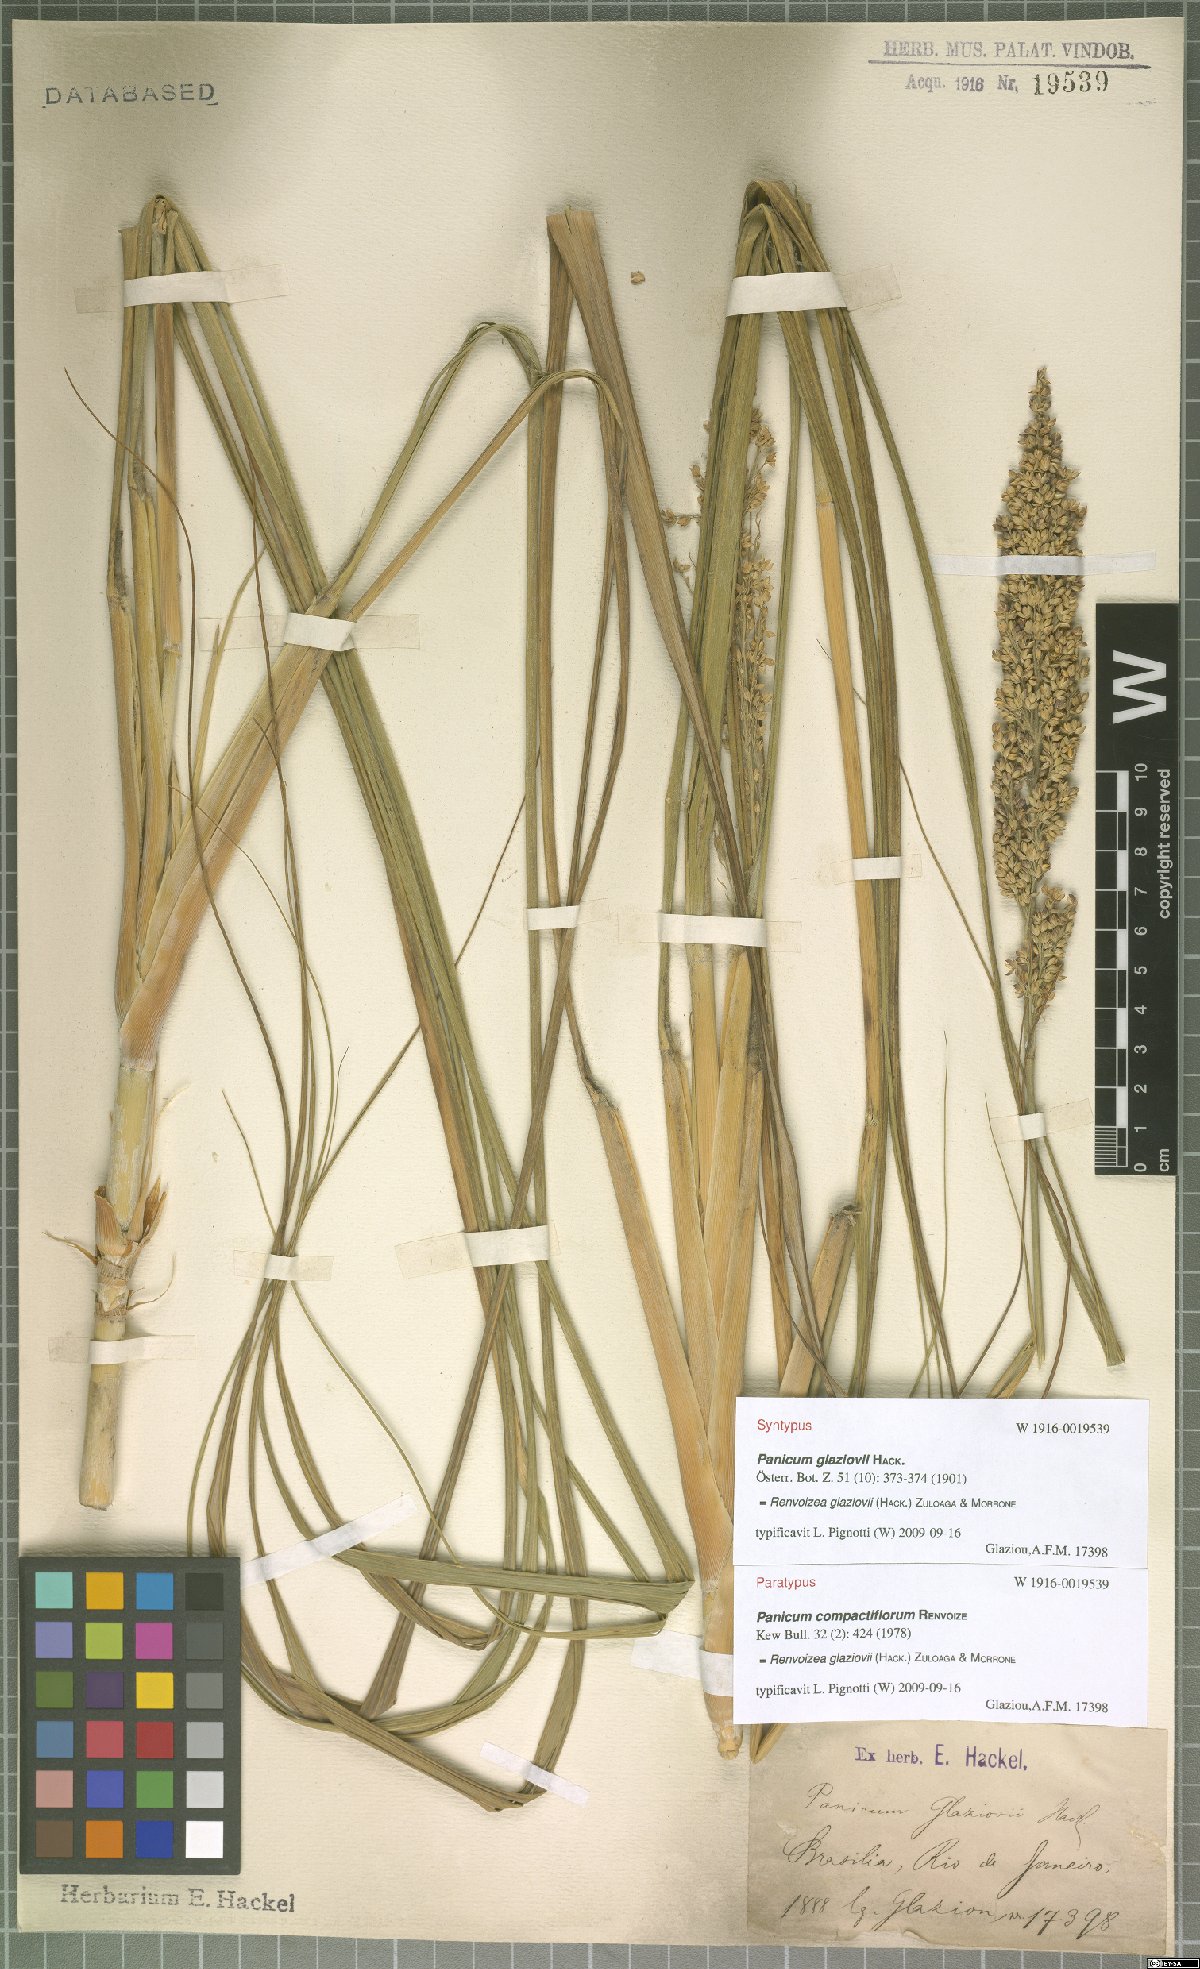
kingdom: Plantae
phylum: Tracheophyta
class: Liliopsida
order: Poales
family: Poaceae
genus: Renvoizea
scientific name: Renvoizea glaziovii
